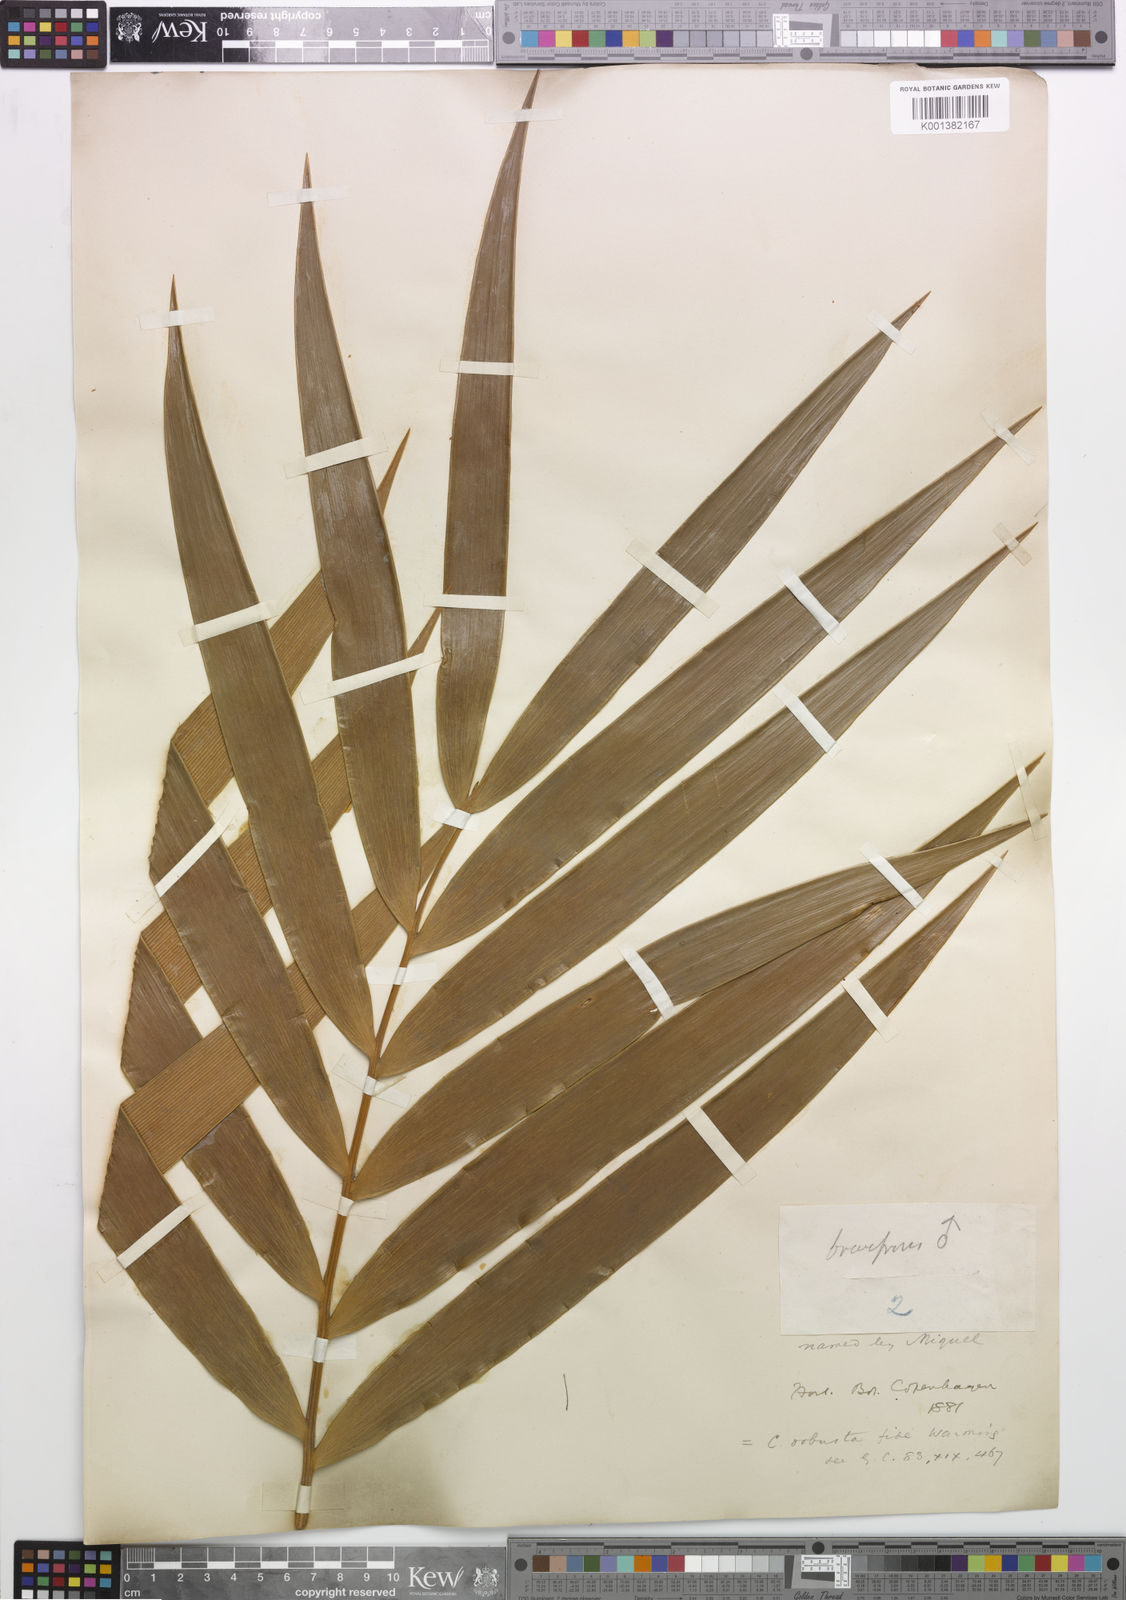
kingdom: Plantae
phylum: Tracheophyta
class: Cycadopsida
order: Cycadales
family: Zamiaceae
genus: Ceratozamia
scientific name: Ceratozamia robusta
